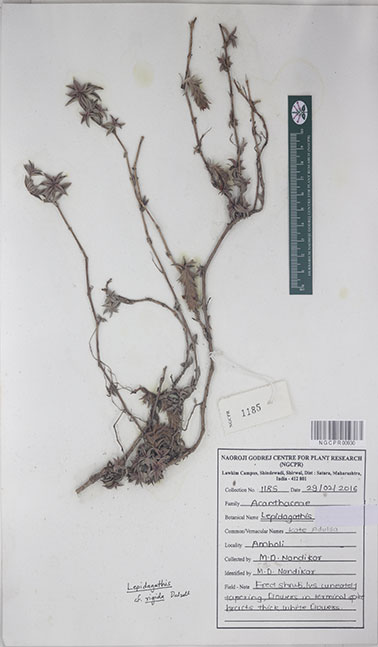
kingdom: Plantae
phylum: Tracheophyta
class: Magnoliopsida
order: Lamiales
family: Acanthaceae
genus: Lepidagathis
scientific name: Lepidagathis rigida
